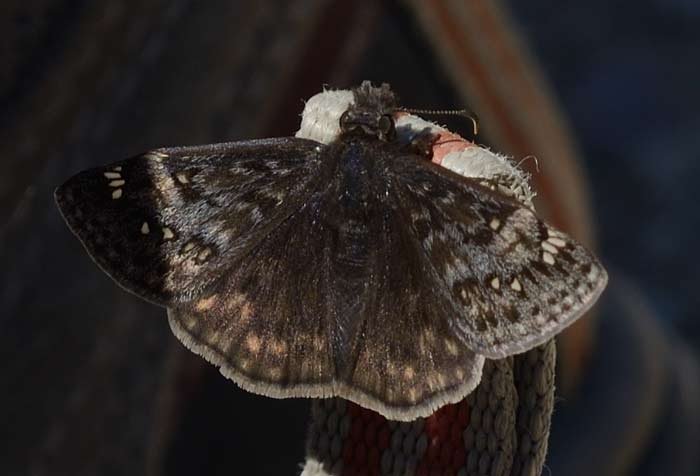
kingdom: Animalia
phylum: Arthropoda
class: Insecta
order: Lepidoptera
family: Hesperiidae
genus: Gesta
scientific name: Gesta
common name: Juvenal's Duskywing
